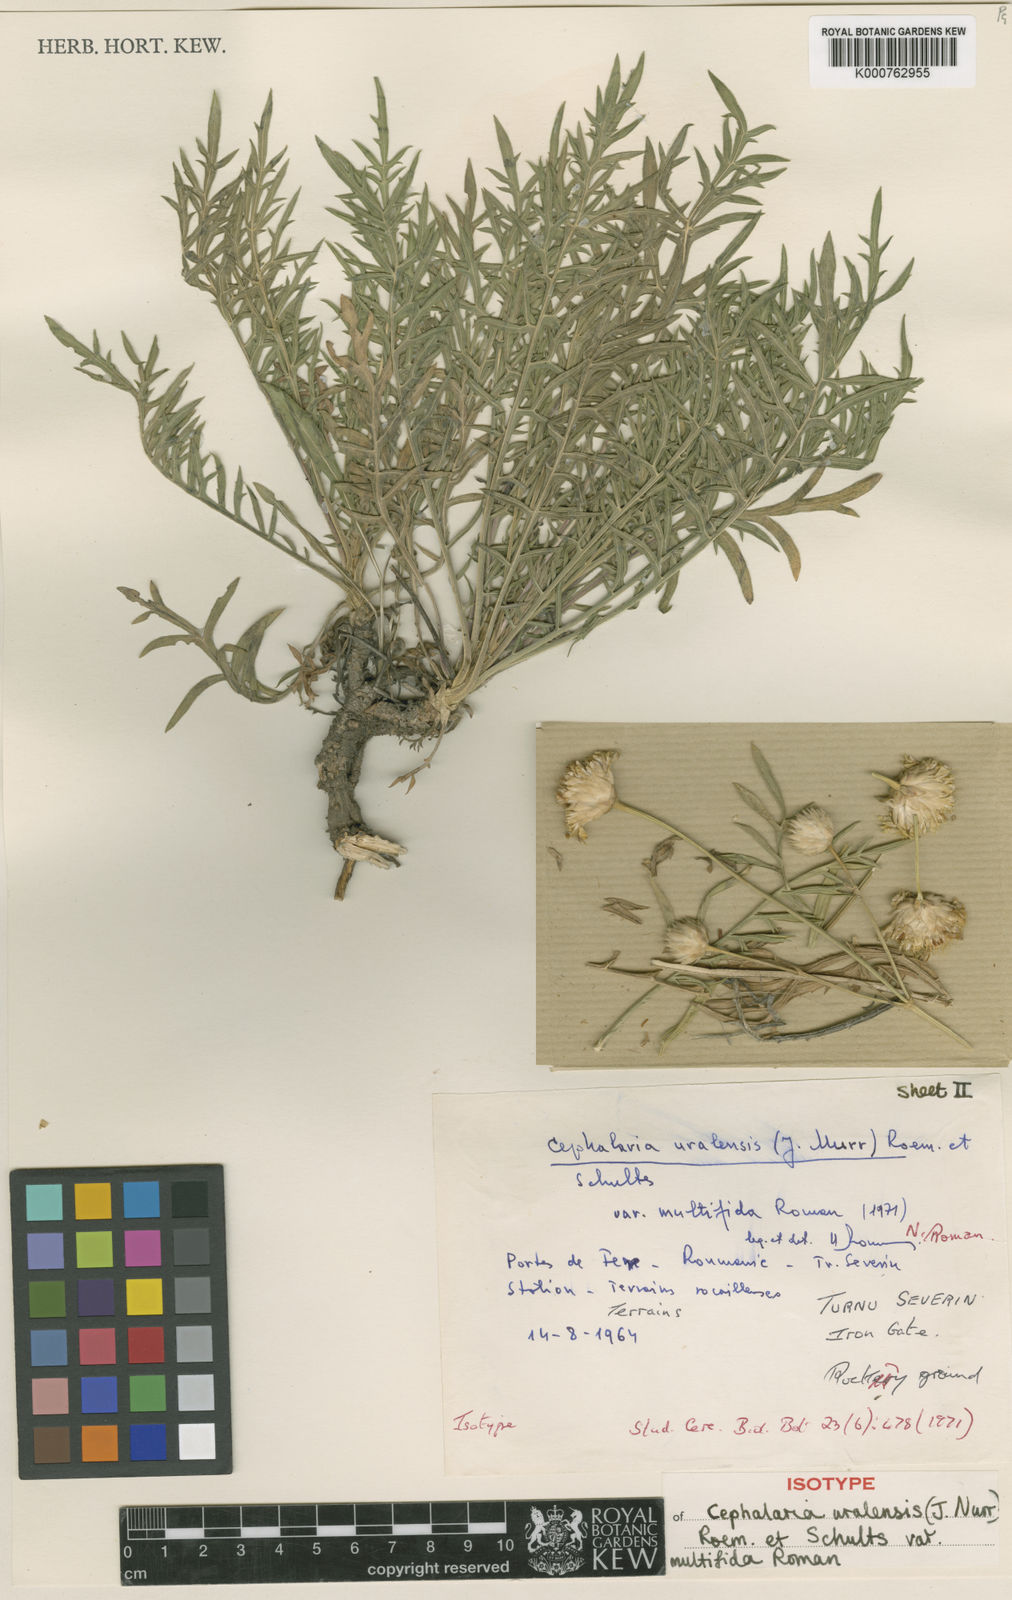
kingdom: Plantae
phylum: Tracheophyta
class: Magnoliopsida
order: Dipsacales
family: Caprifoliaceae
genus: Cephalaria
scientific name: Cephalaria uralensis
